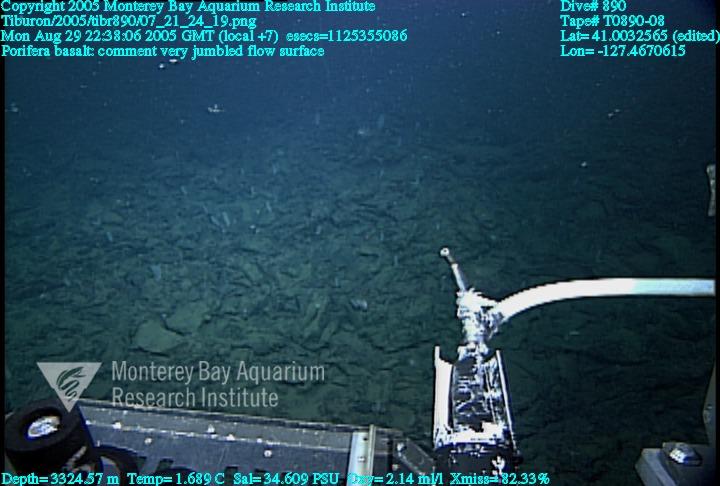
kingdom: Animalia
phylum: Porifera
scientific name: Porifera
